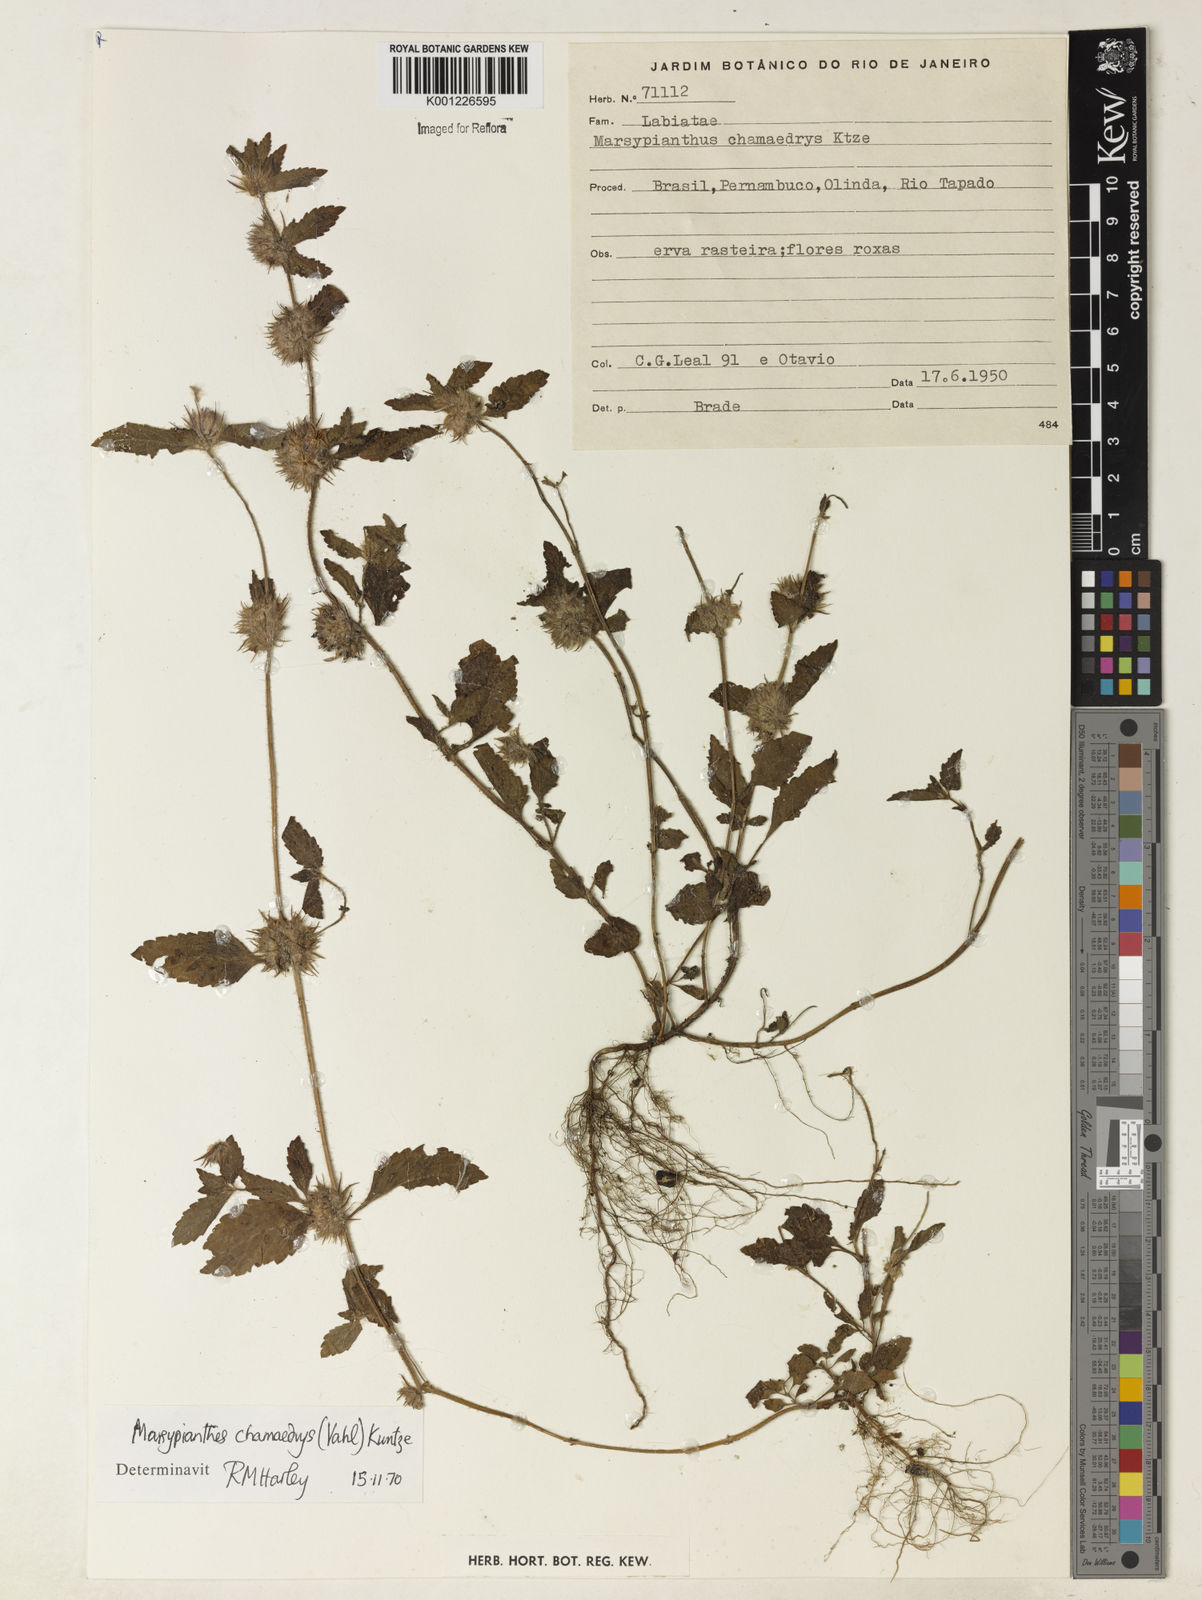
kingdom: Plantae
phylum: Tracheophyta
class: Magnoliopsida
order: Lamiales
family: Lamiaceae
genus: Marsypianthes
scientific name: Marsypianthes chamaedrys
